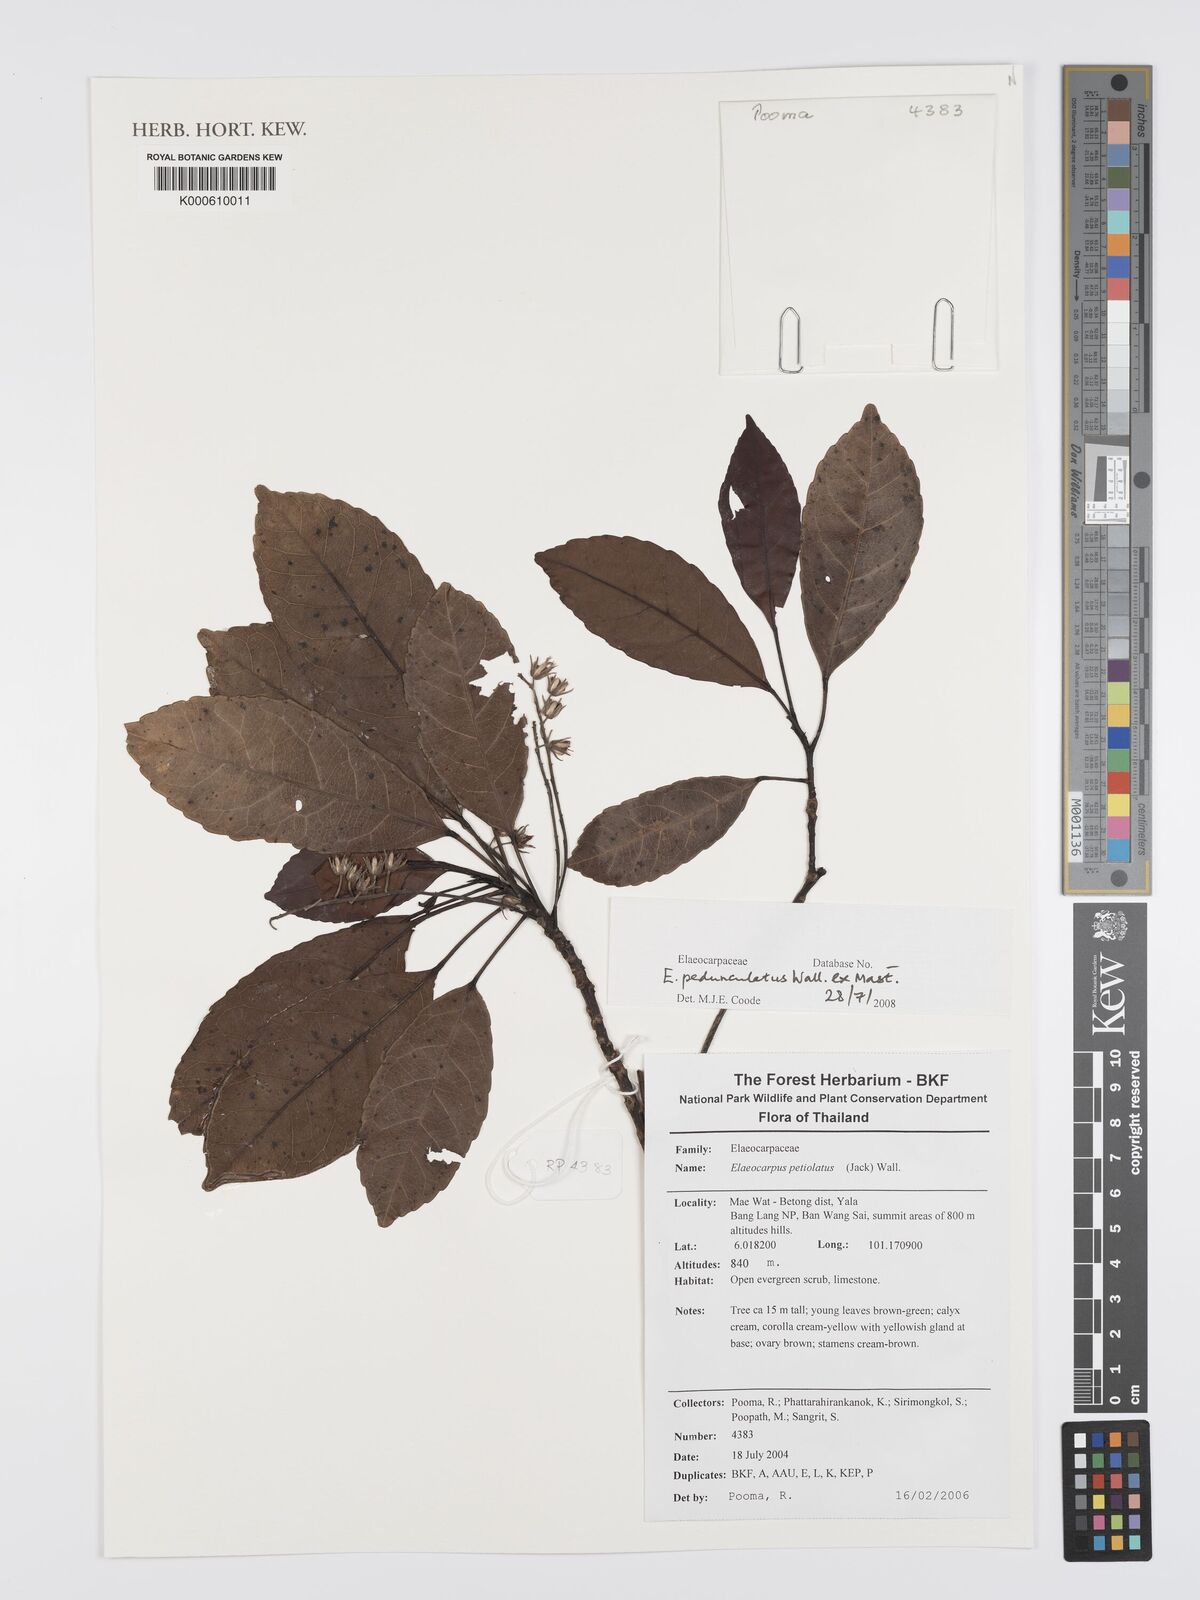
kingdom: Plantae
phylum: Tracheophyta
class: Magnoliopsida
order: Oxalidales
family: Elaeocarpaceae
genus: Elaeocarpus
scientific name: Elaeocarpus pedunculatus
